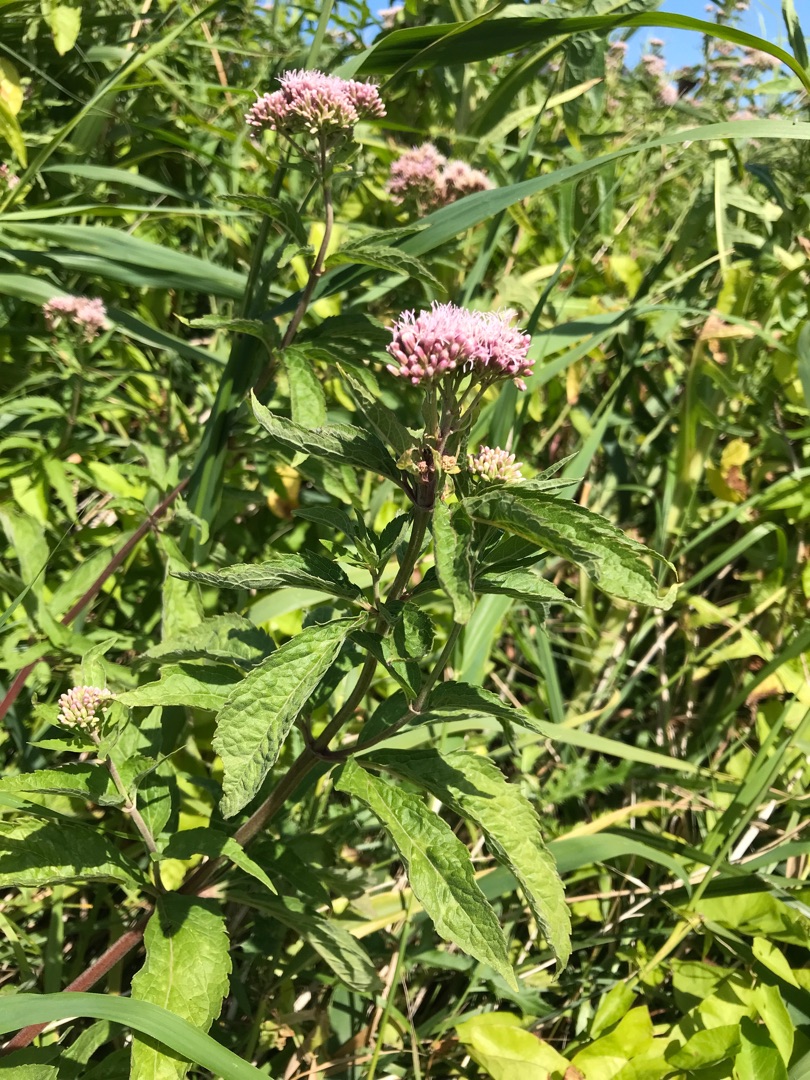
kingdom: Plantae
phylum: Tracheophyta
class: Magnoliopsida
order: Asterales
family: Asteraceae
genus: Eupatorium
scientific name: Eupatorium cannabinum
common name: Hjortetrøst
